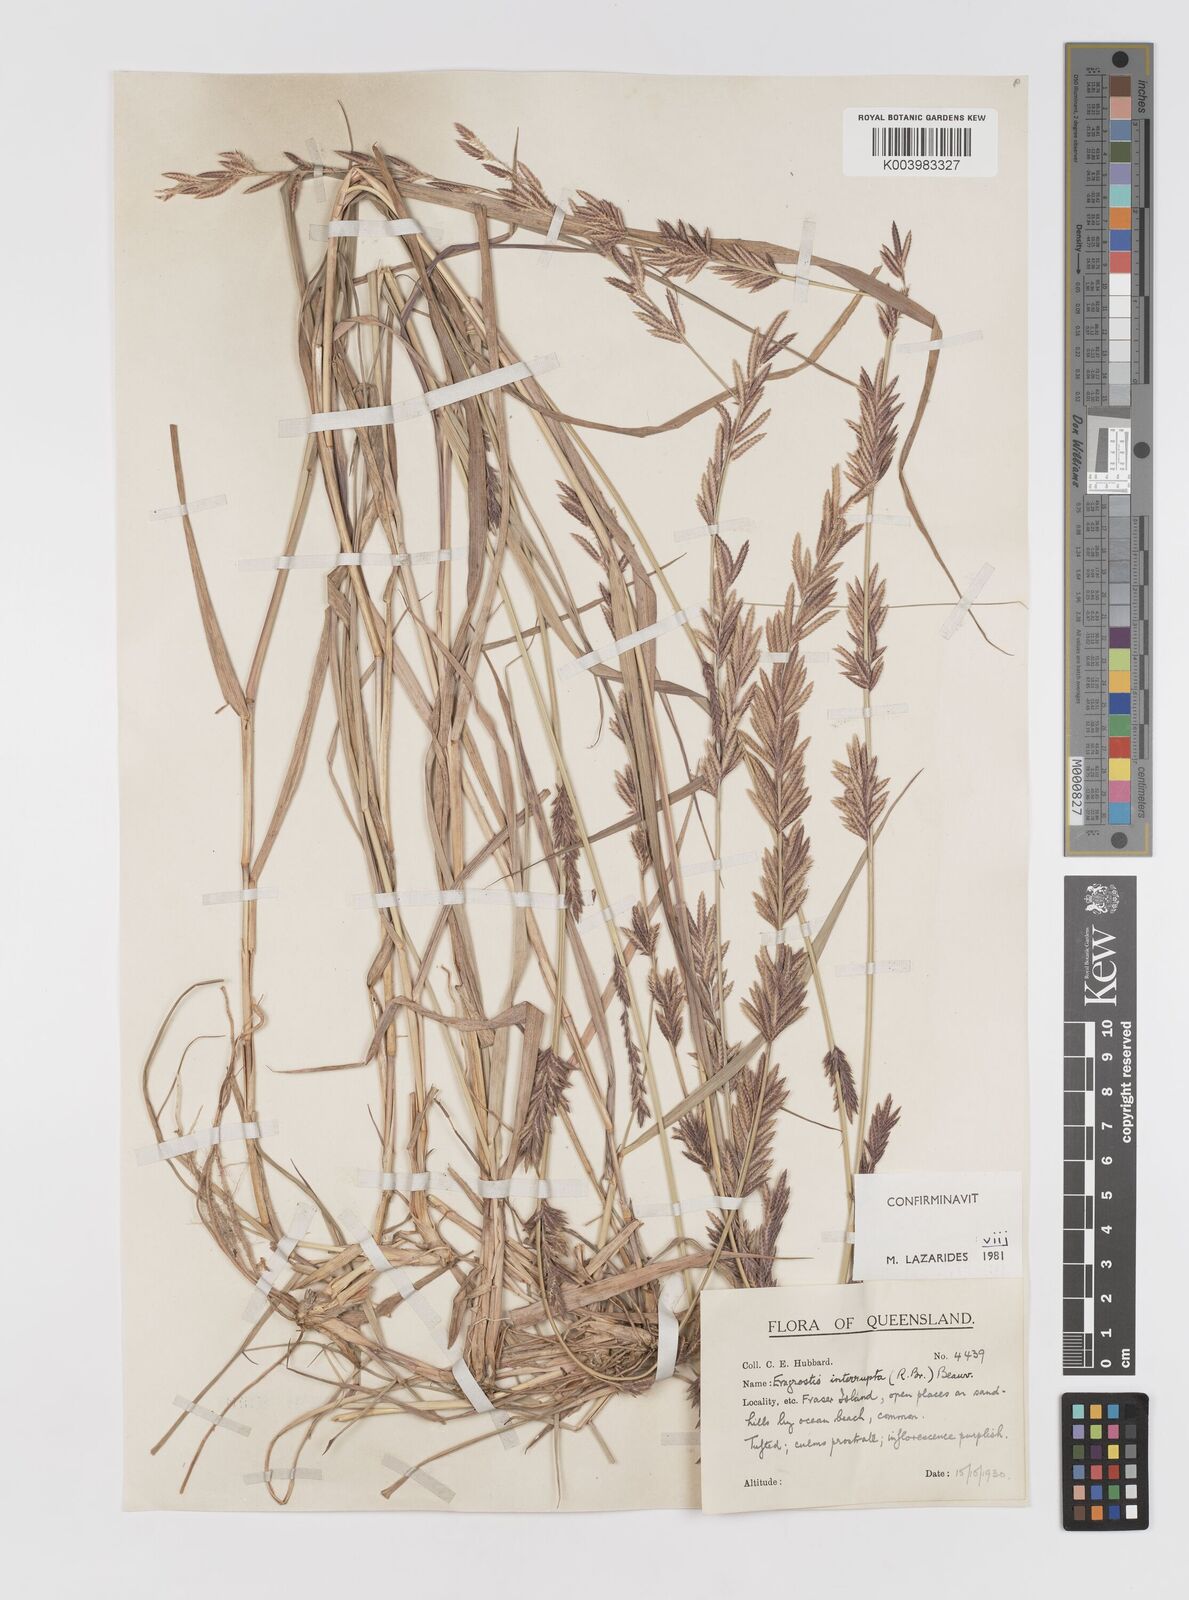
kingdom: Plantae
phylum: Tracheophyta
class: Liliopsida
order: Poales
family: Poaceae
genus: Eragrostis
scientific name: Eragrostis interrupta
